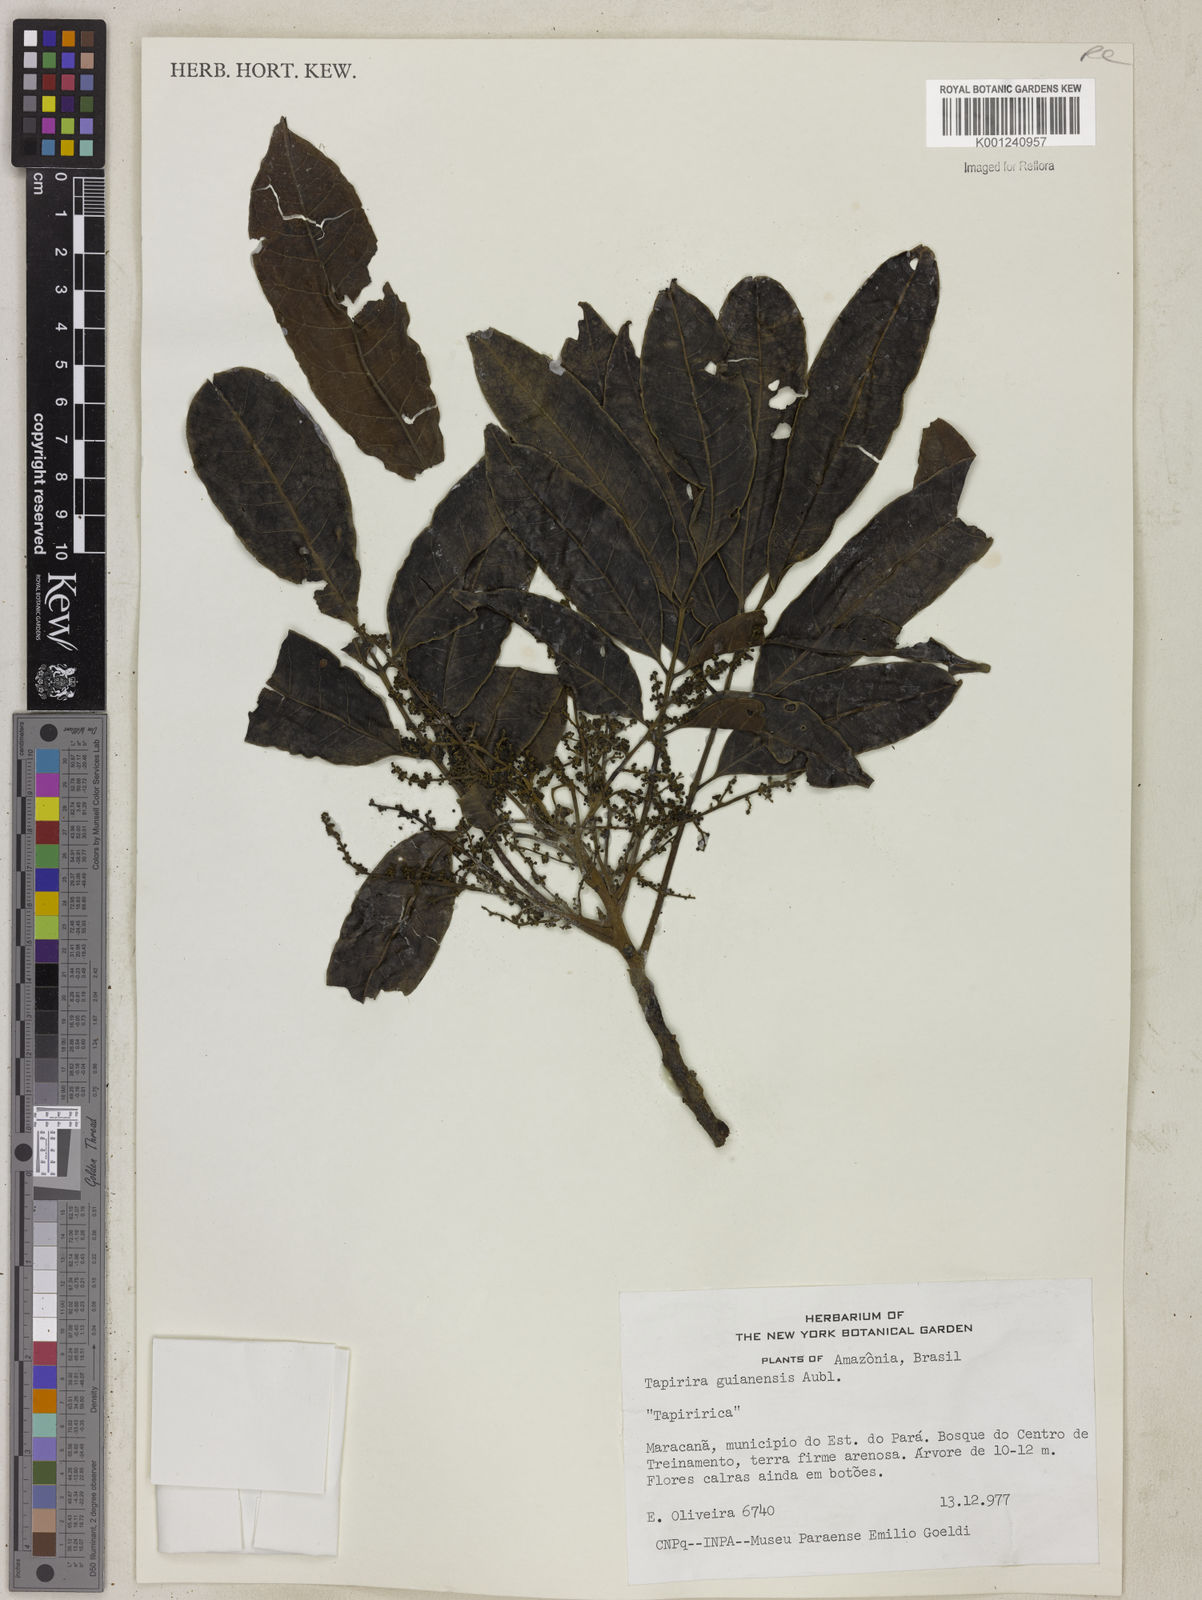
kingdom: Plantae
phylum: Tracheophyta
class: Magnoliopsida
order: Sapindales
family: Anacardiaceae
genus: Tapirira
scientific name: Tapirira guianensis
